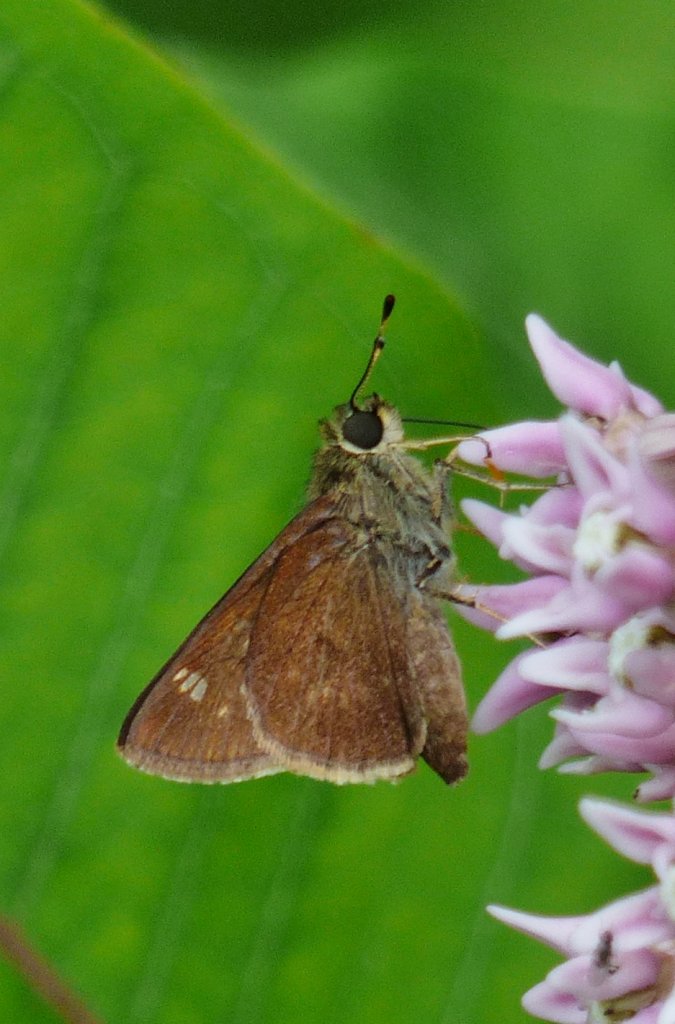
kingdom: Animalia
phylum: Arthropoda
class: Insecta
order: Lepidoptera
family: Hesperiidae
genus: Vernia
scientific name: Vernia verna
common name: Little Glassywing
